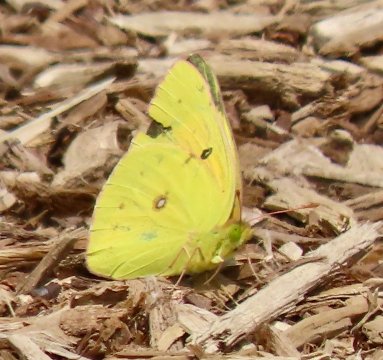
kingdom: Animalia
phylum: Arthropoda
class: Insecta
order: Lepidoptera
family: Pieridae
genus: Colias
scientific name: Colias eurytheme
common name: Orange Sulphur
